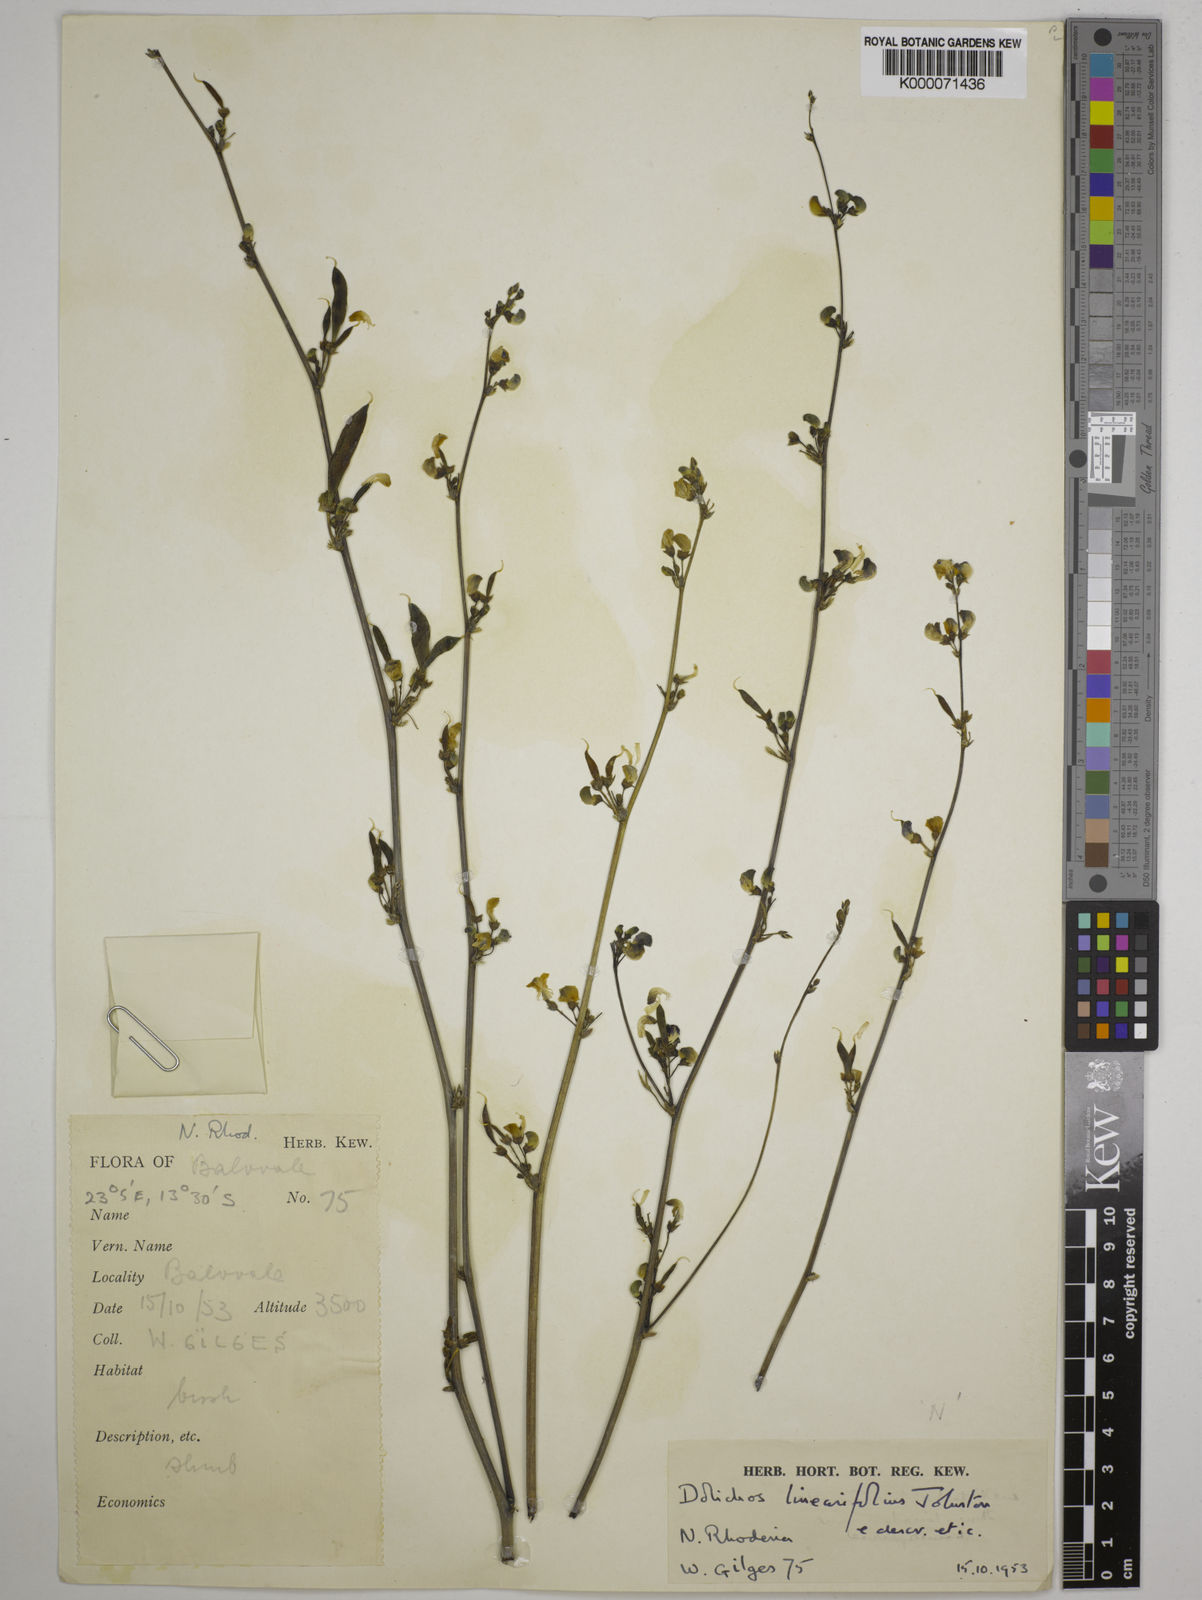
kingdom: Plantae
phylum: Tracheophyta
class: Magnoliopsida
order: Fabales
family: Fabaceae
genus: Dolichos
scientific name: Dolichos linearifolius
